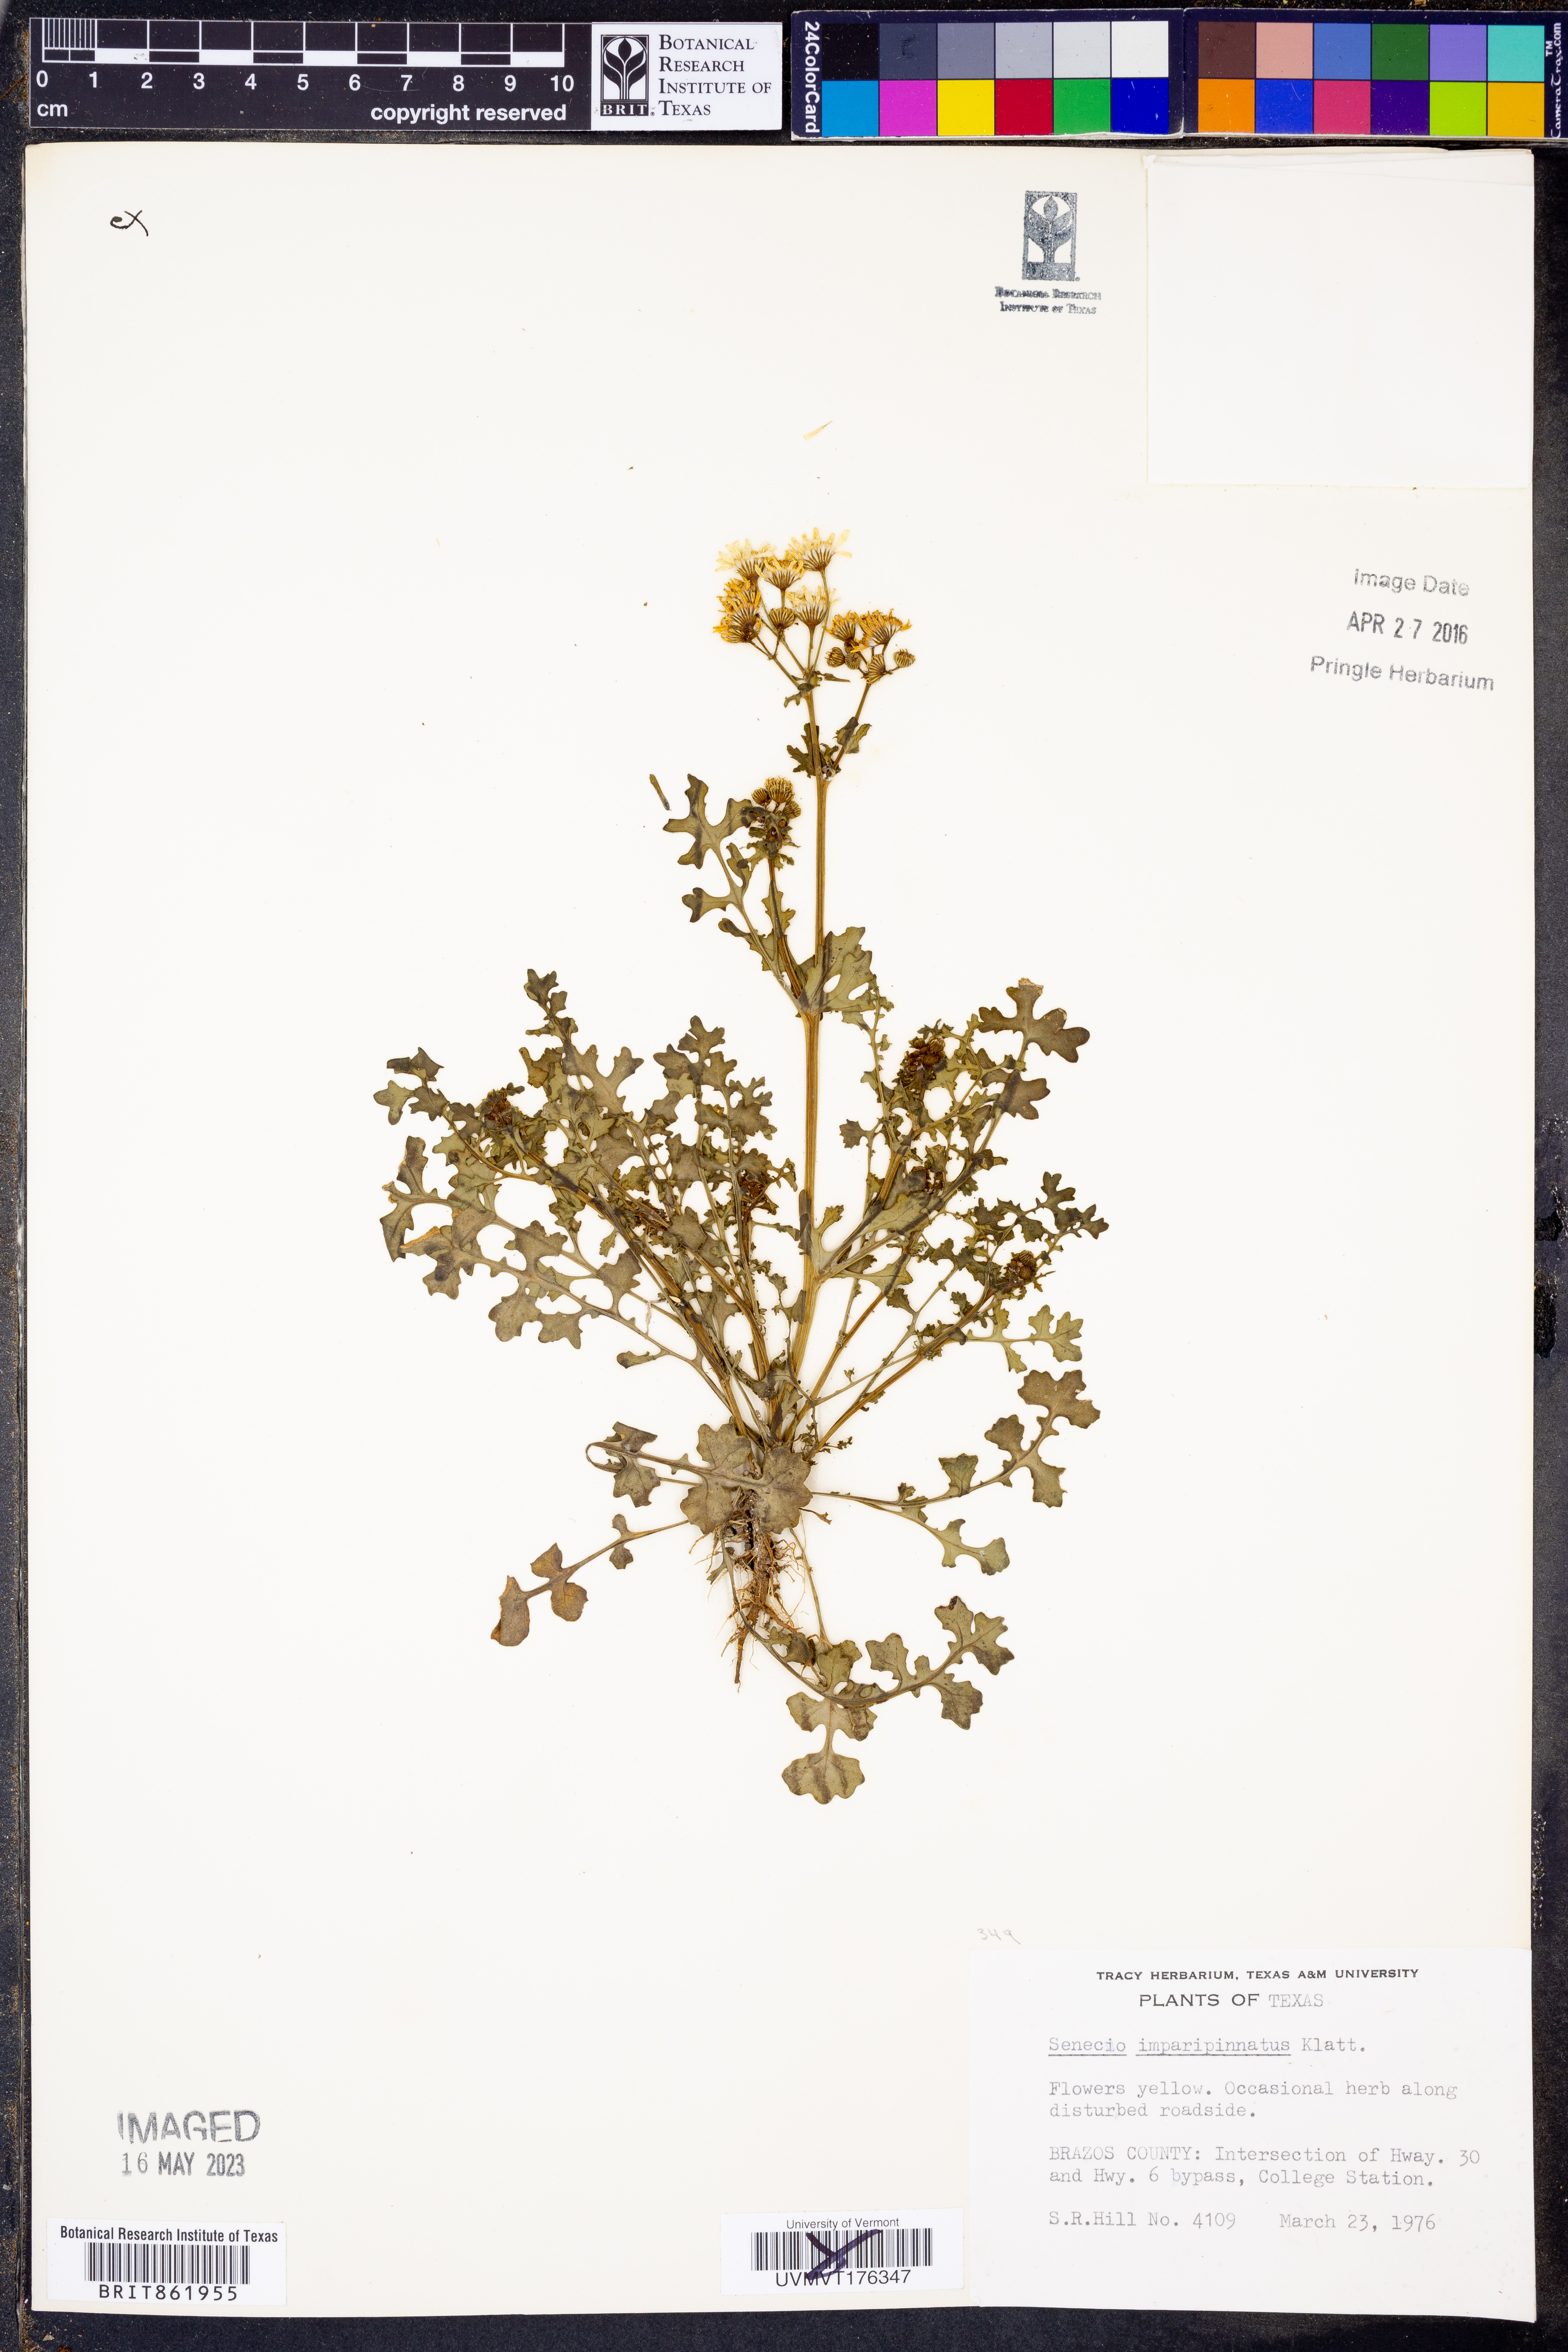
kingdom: Plantae
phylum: Tracheophyta
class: Magnoliopsida
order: Asterales
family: Asteraceae
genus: Packera
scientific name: Packera tampicana
